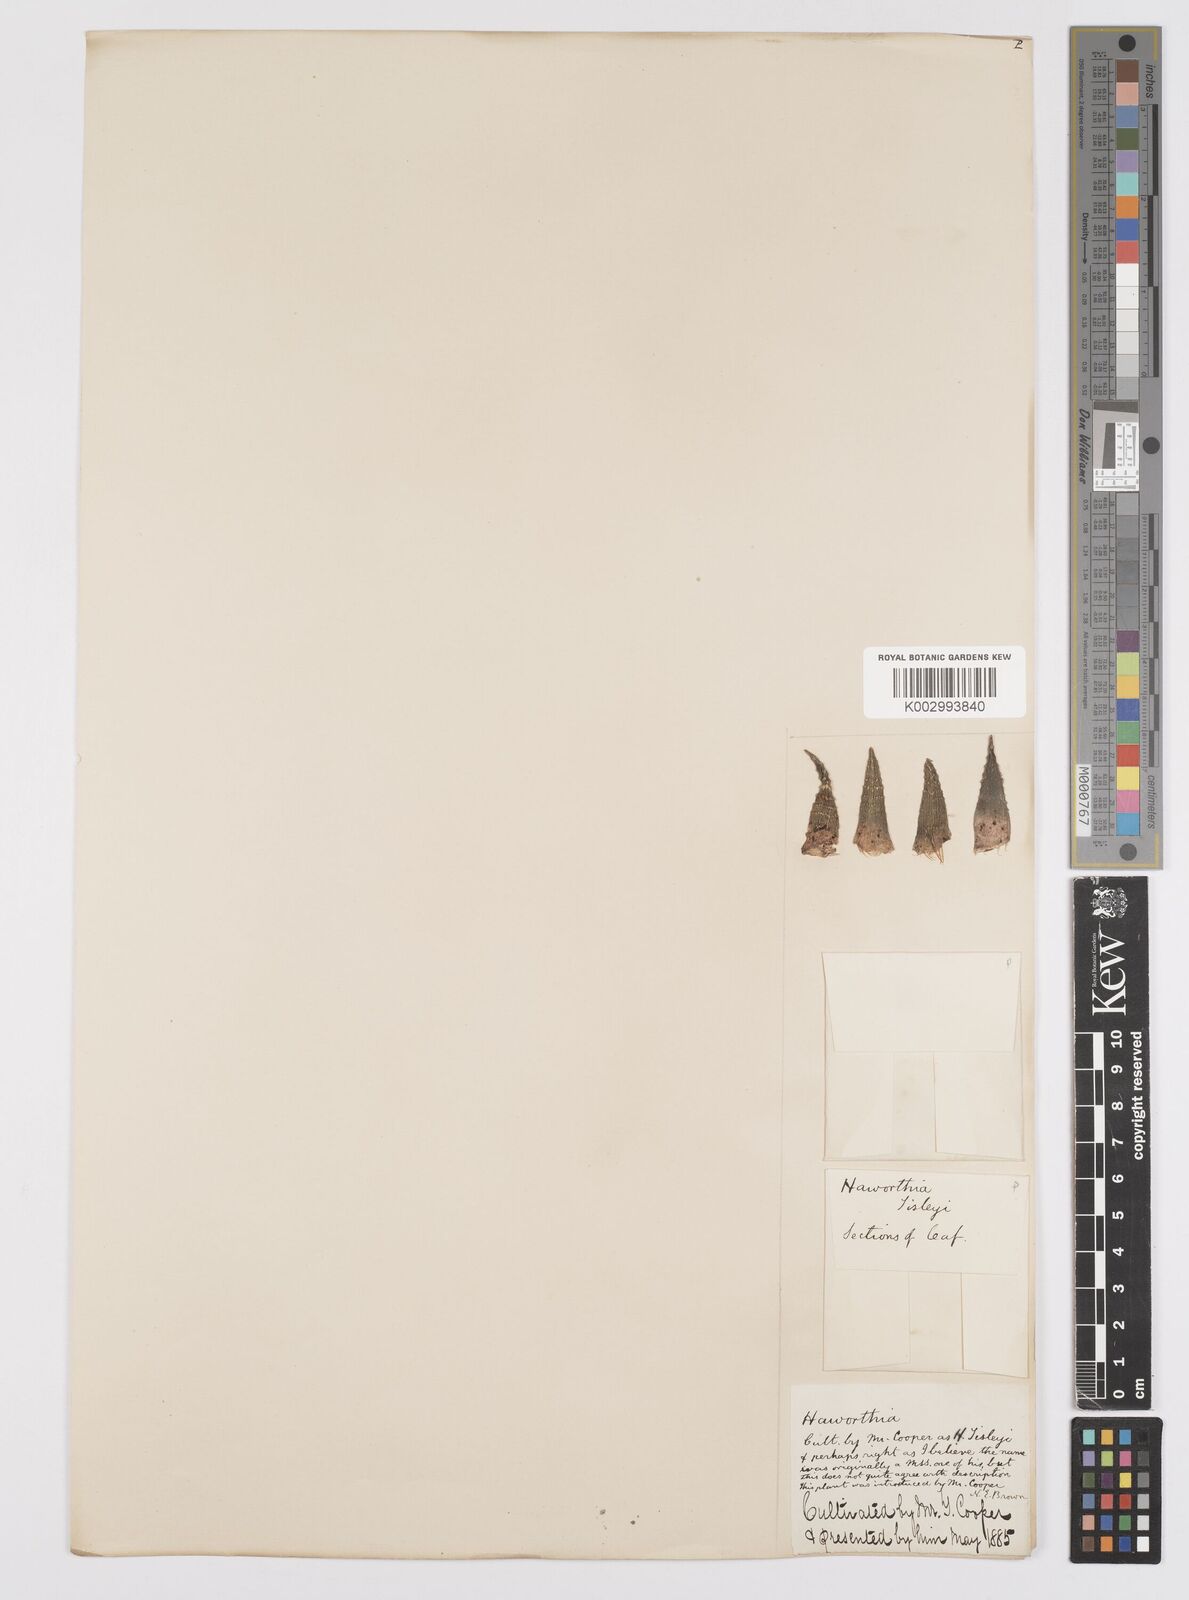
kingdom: Plantae
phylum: Tracheophyta
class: Liliopsida
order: Asparagales
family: Asphodelaceae
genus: Haworthiopsis
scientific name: Haworthiopsis attenuata
